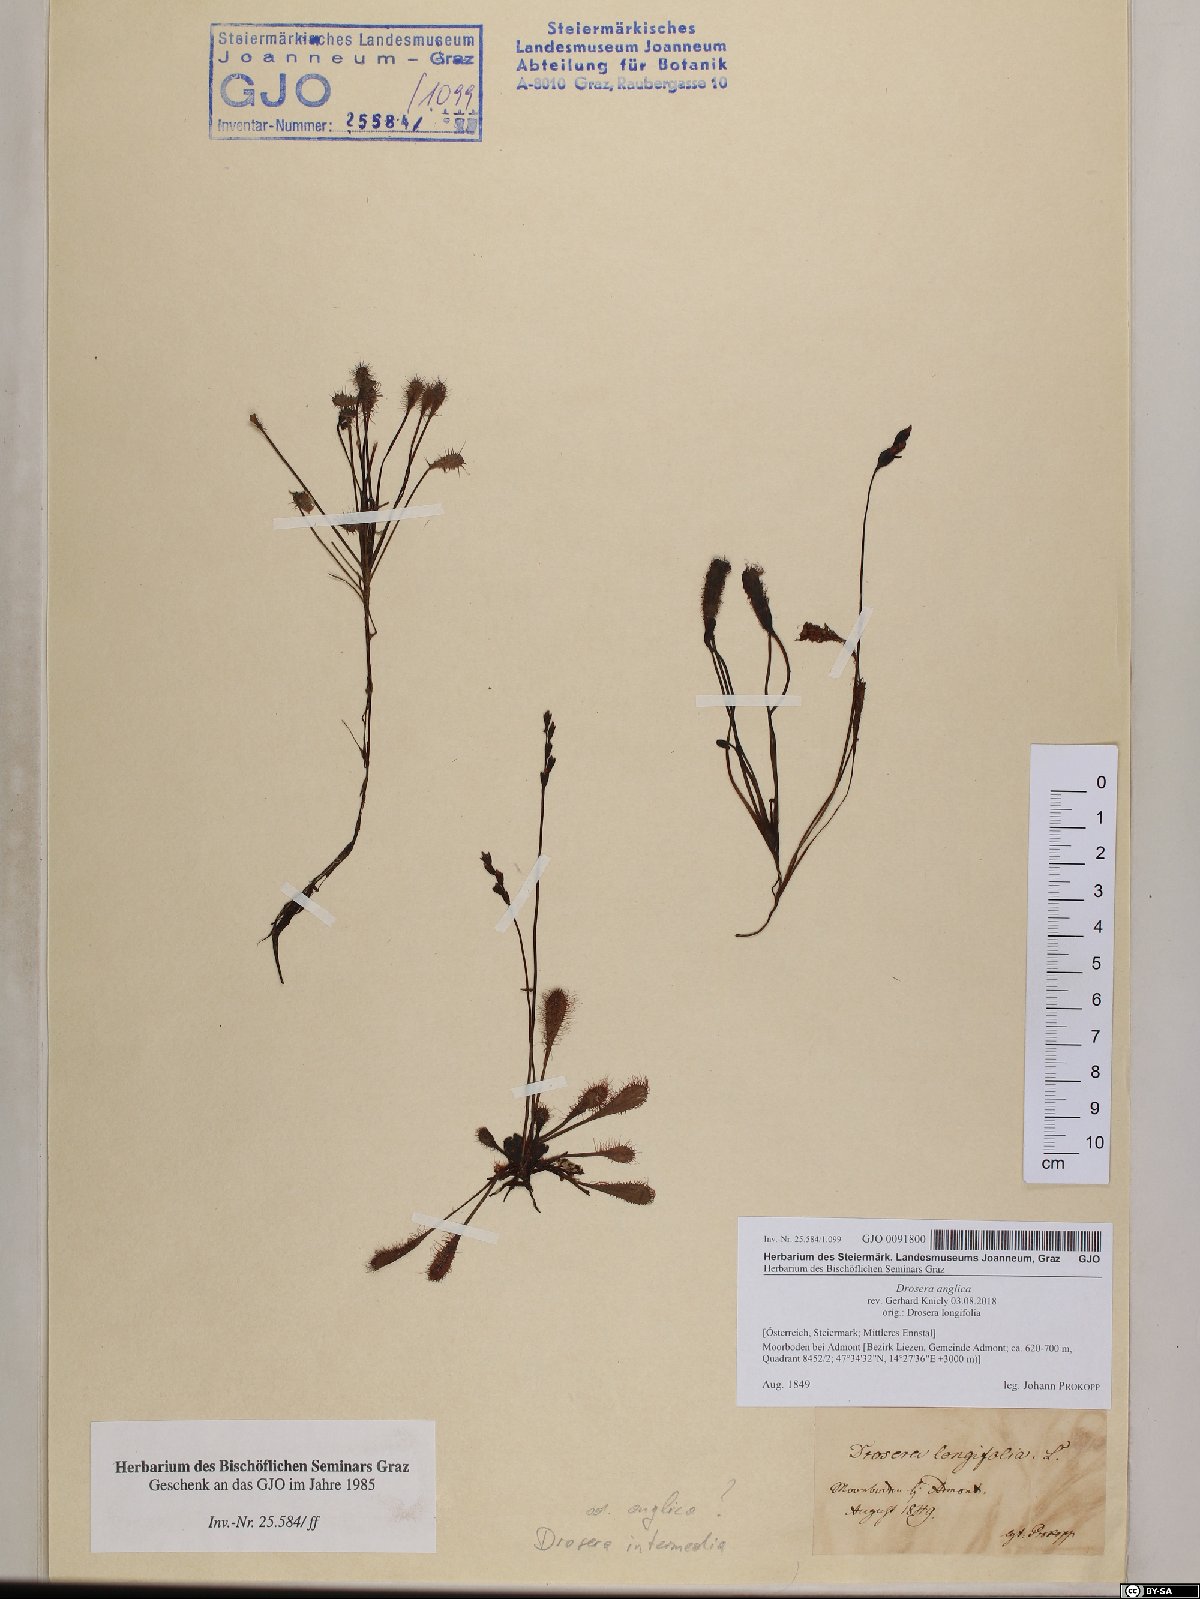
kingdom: Plantae
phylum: Tracheophyta
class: Magnoliopsida
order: Caryophyllales
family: Droseraceae
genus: Drosera
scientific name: Drosera anglica
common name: Great sundew
